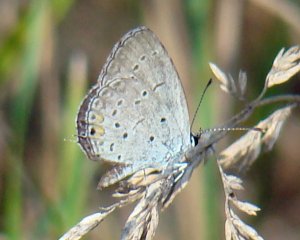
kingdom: Animalia
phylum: Arthropoda
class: Insecta
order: Lepidoptera
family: Lycaenidae
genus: Elkalyce
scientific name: Elkalyce comyntas
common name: Eastern Tailed-Blue
